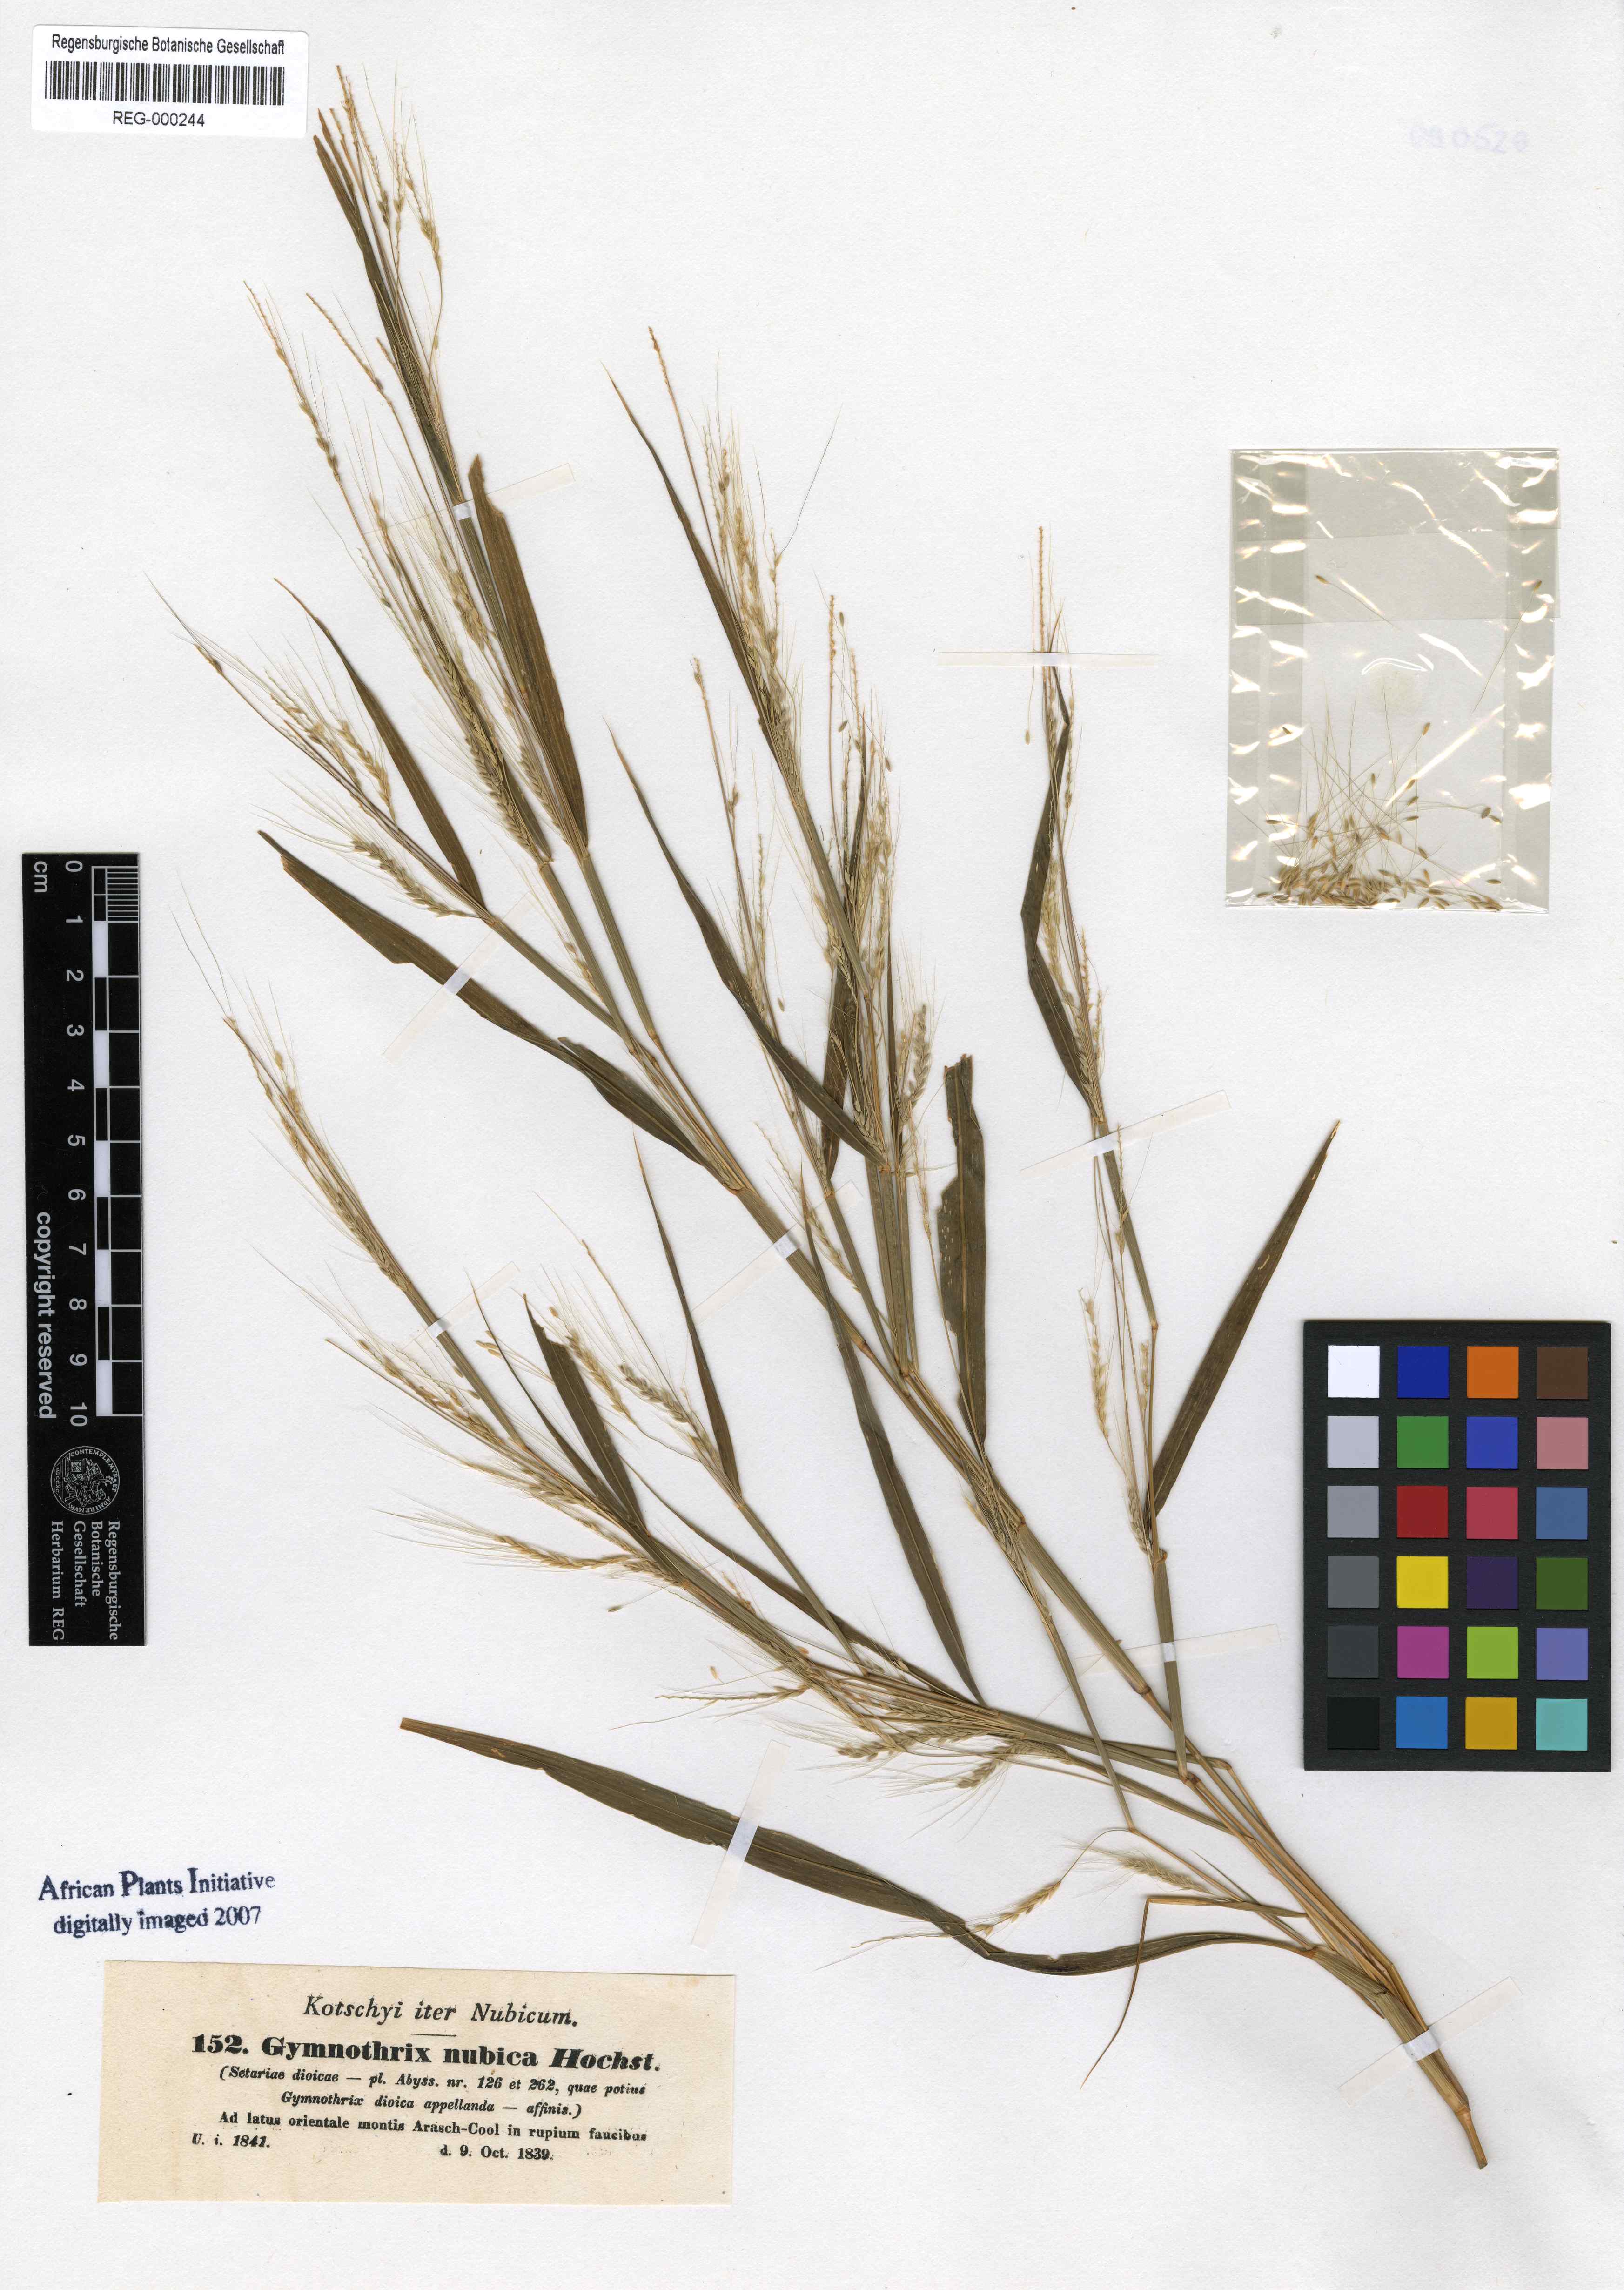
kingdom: Plantae
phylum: Tracheophyta
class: Liliopsida
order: Poales
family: Poaceae
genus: Cenchrus
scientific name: Cenchrus nubicus
